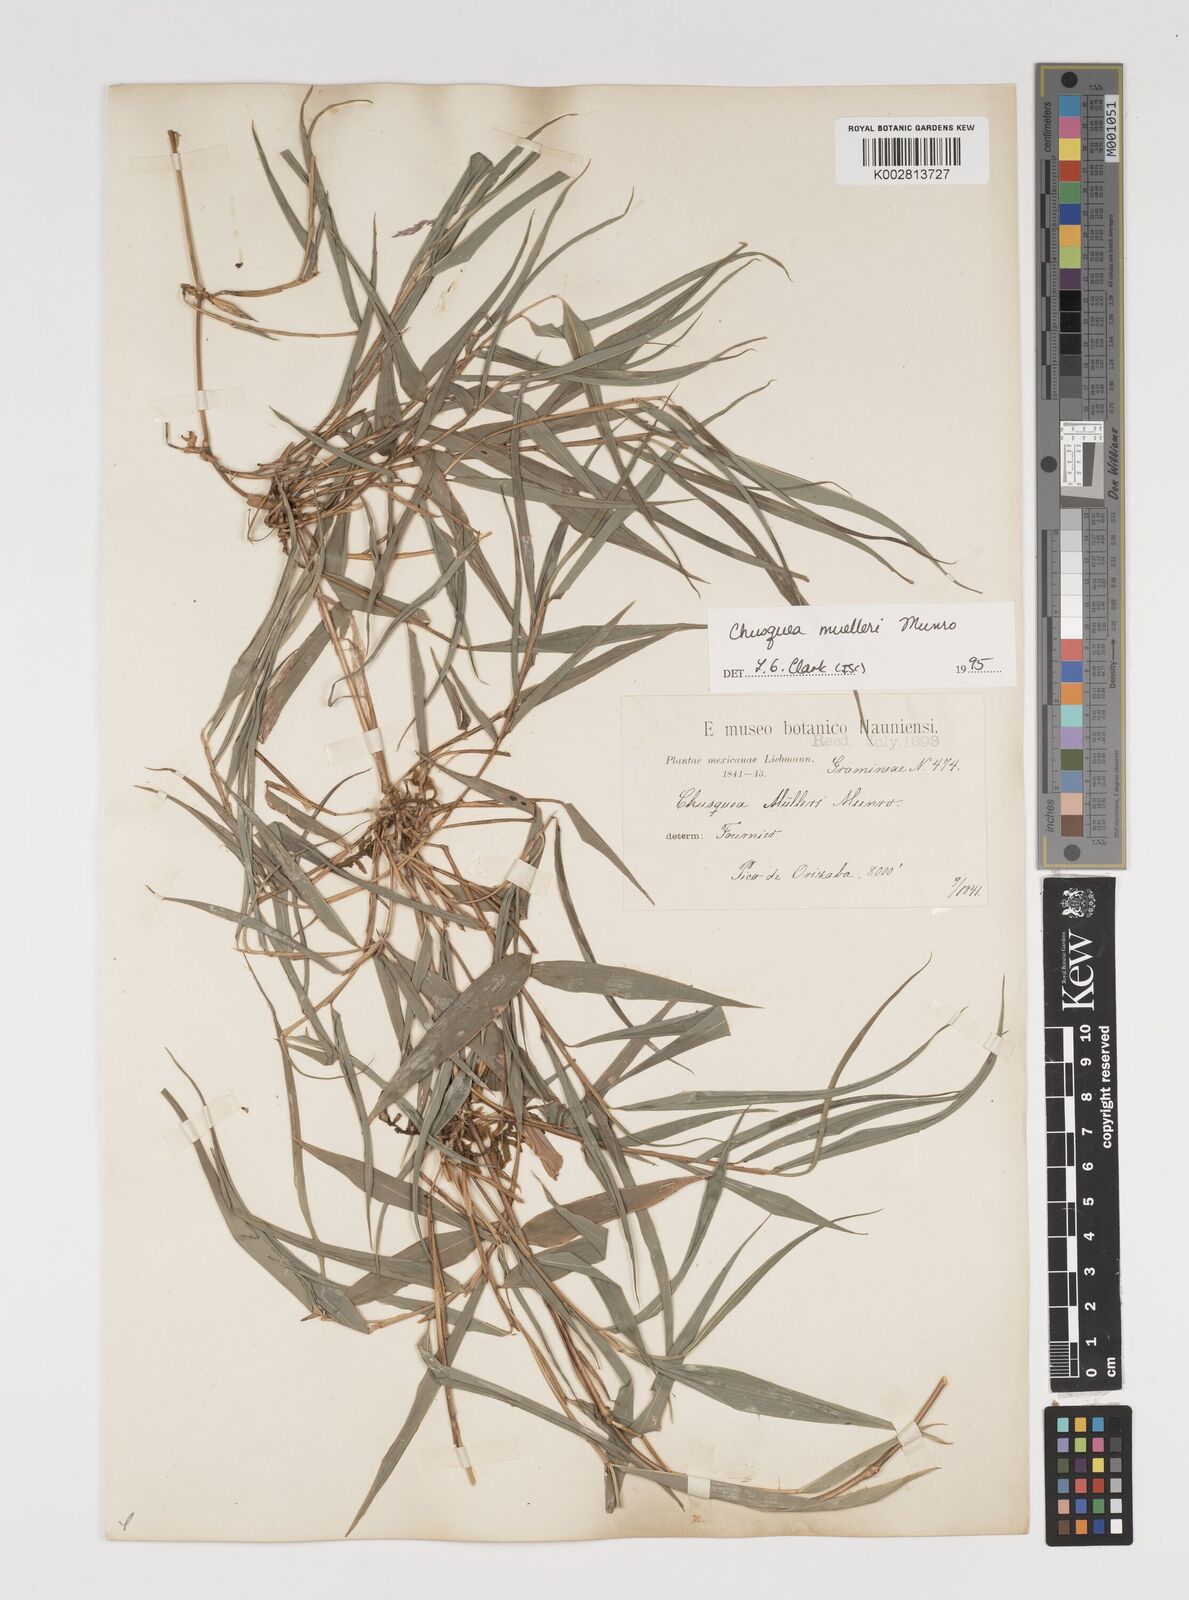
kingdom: Plantae
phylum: Tracheophyta
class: Liliopsida
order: Poales
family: Poaceae
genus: Chusquea
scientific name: Chusquea mulleri
